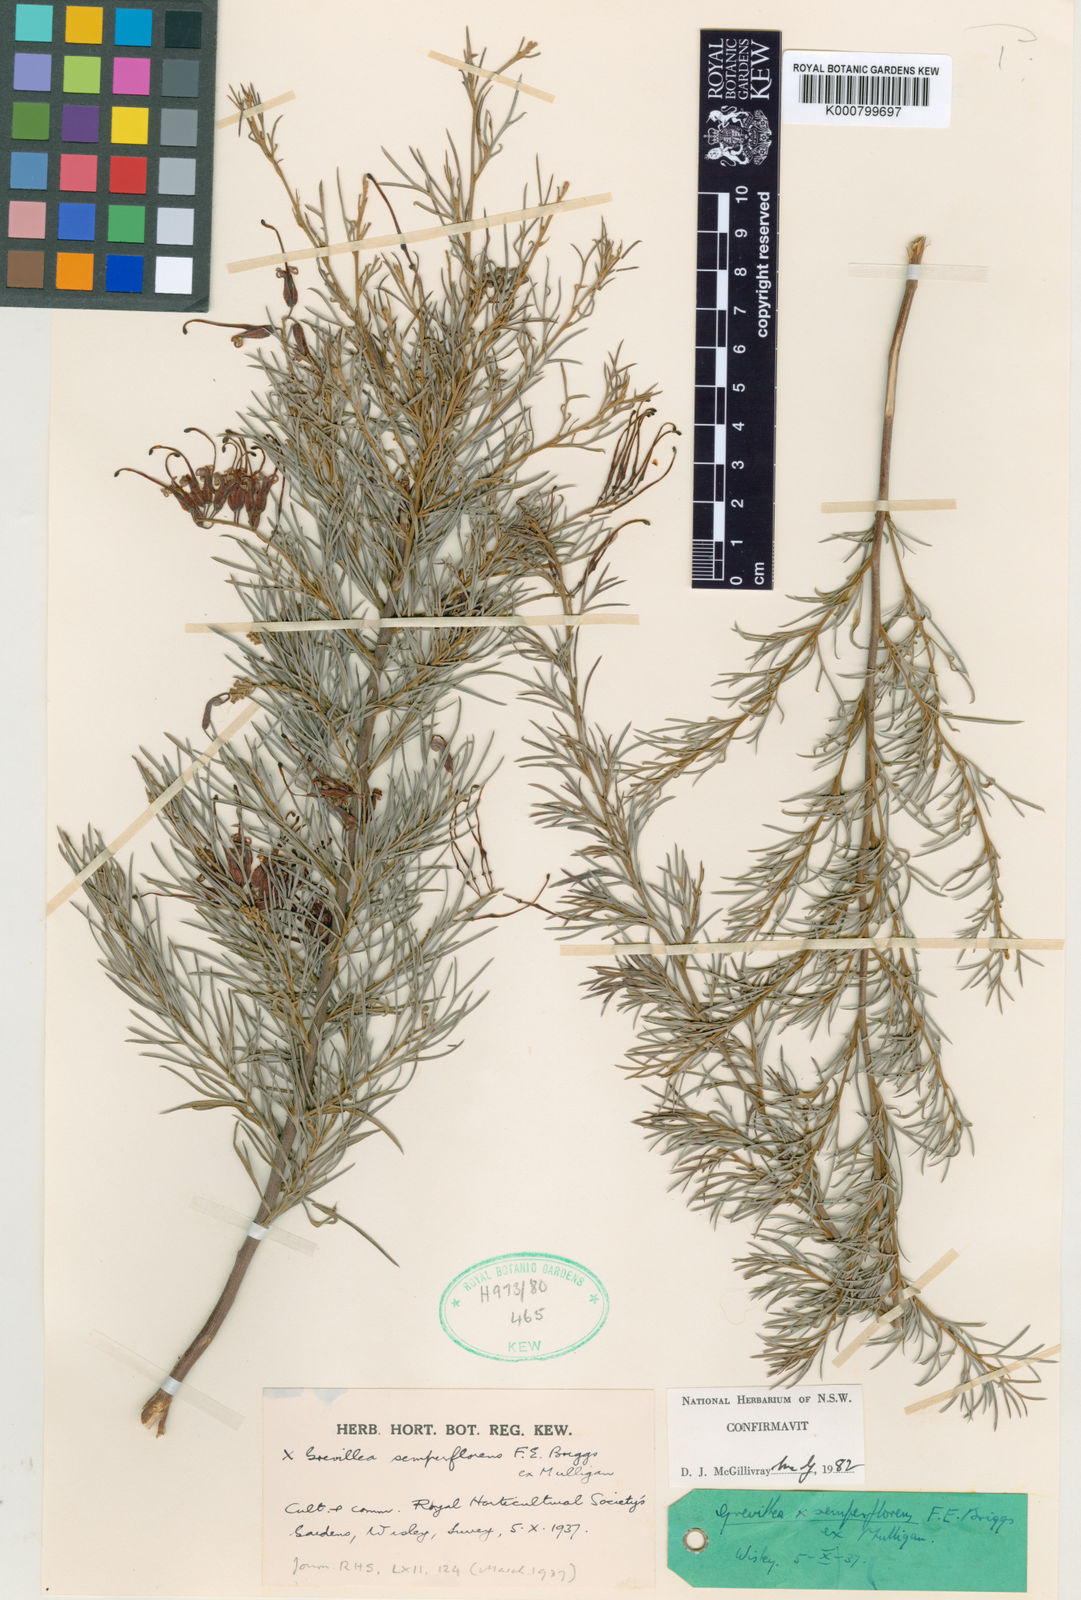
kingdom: Plantae
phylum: Tracheophyta
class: Magnoliopsida
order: Proteales
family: Proteaceae
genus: Grevillea
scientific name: Grevillea semperflorens
